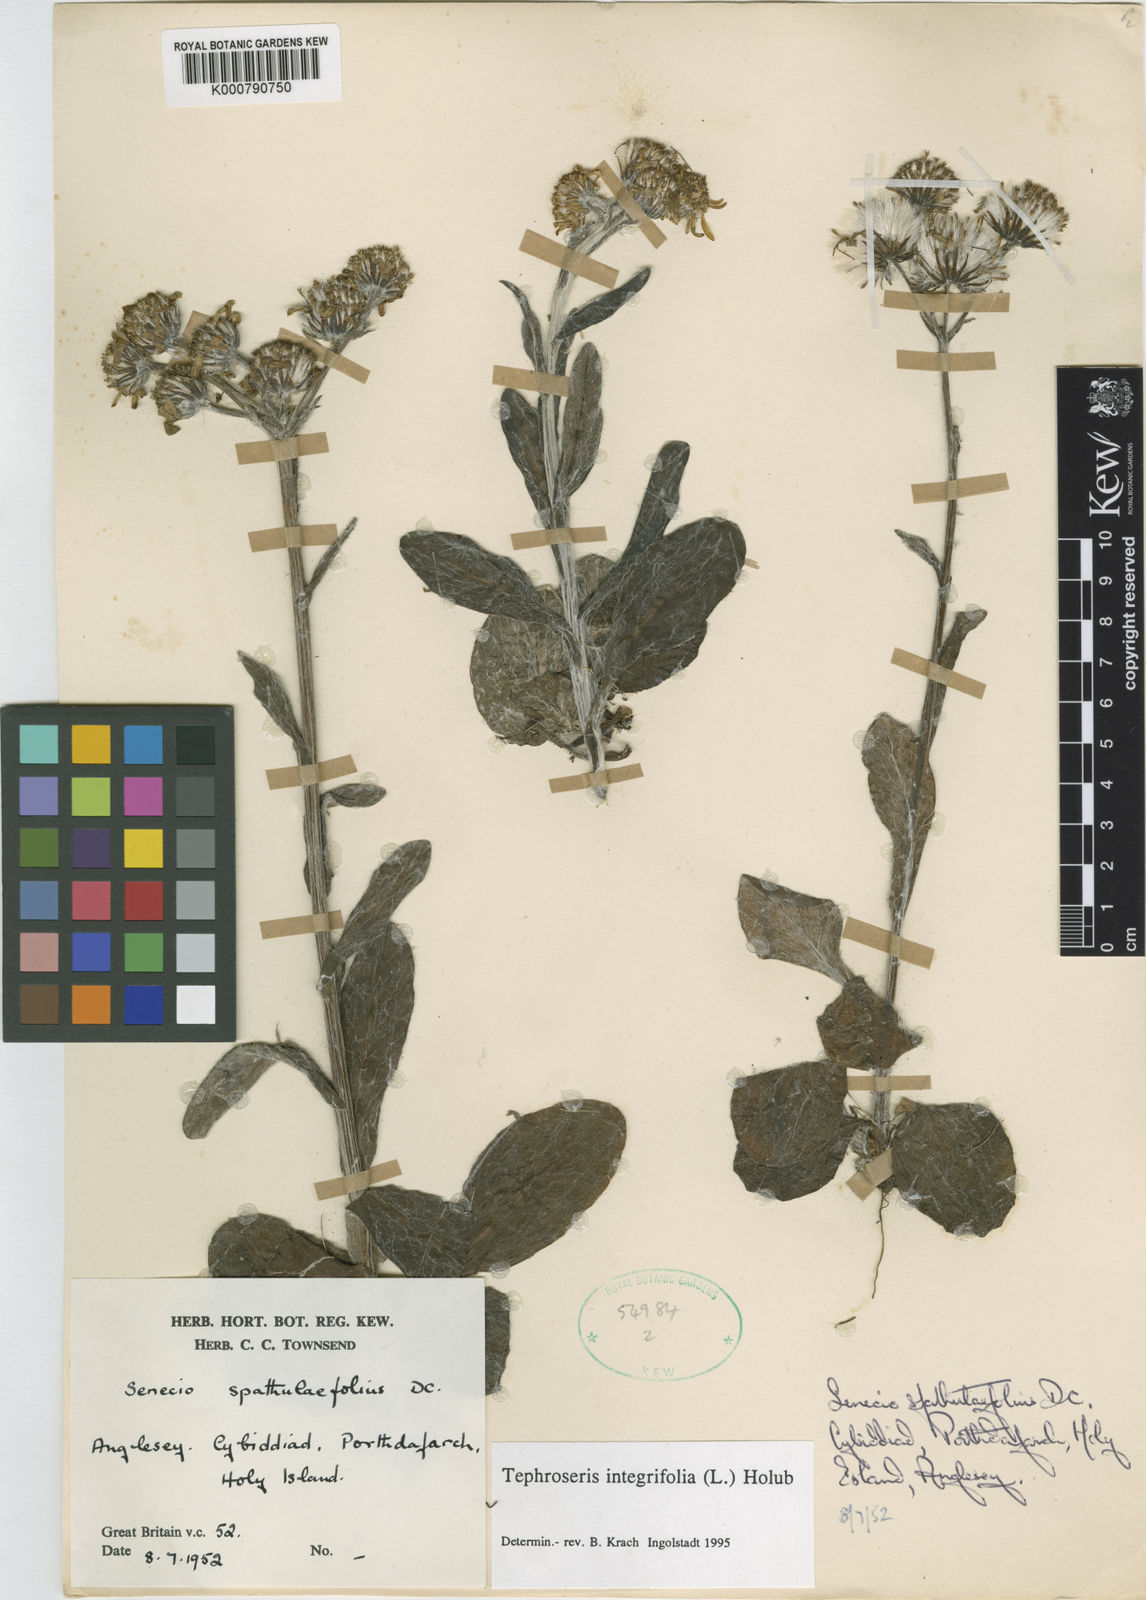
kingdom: Plantae
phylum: Tracheophyta
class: Magnoliopsida
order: Asterales
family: Asteraceae
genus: Tephroseris
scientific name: Tephroseris integrifolia
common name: Field fleawort
